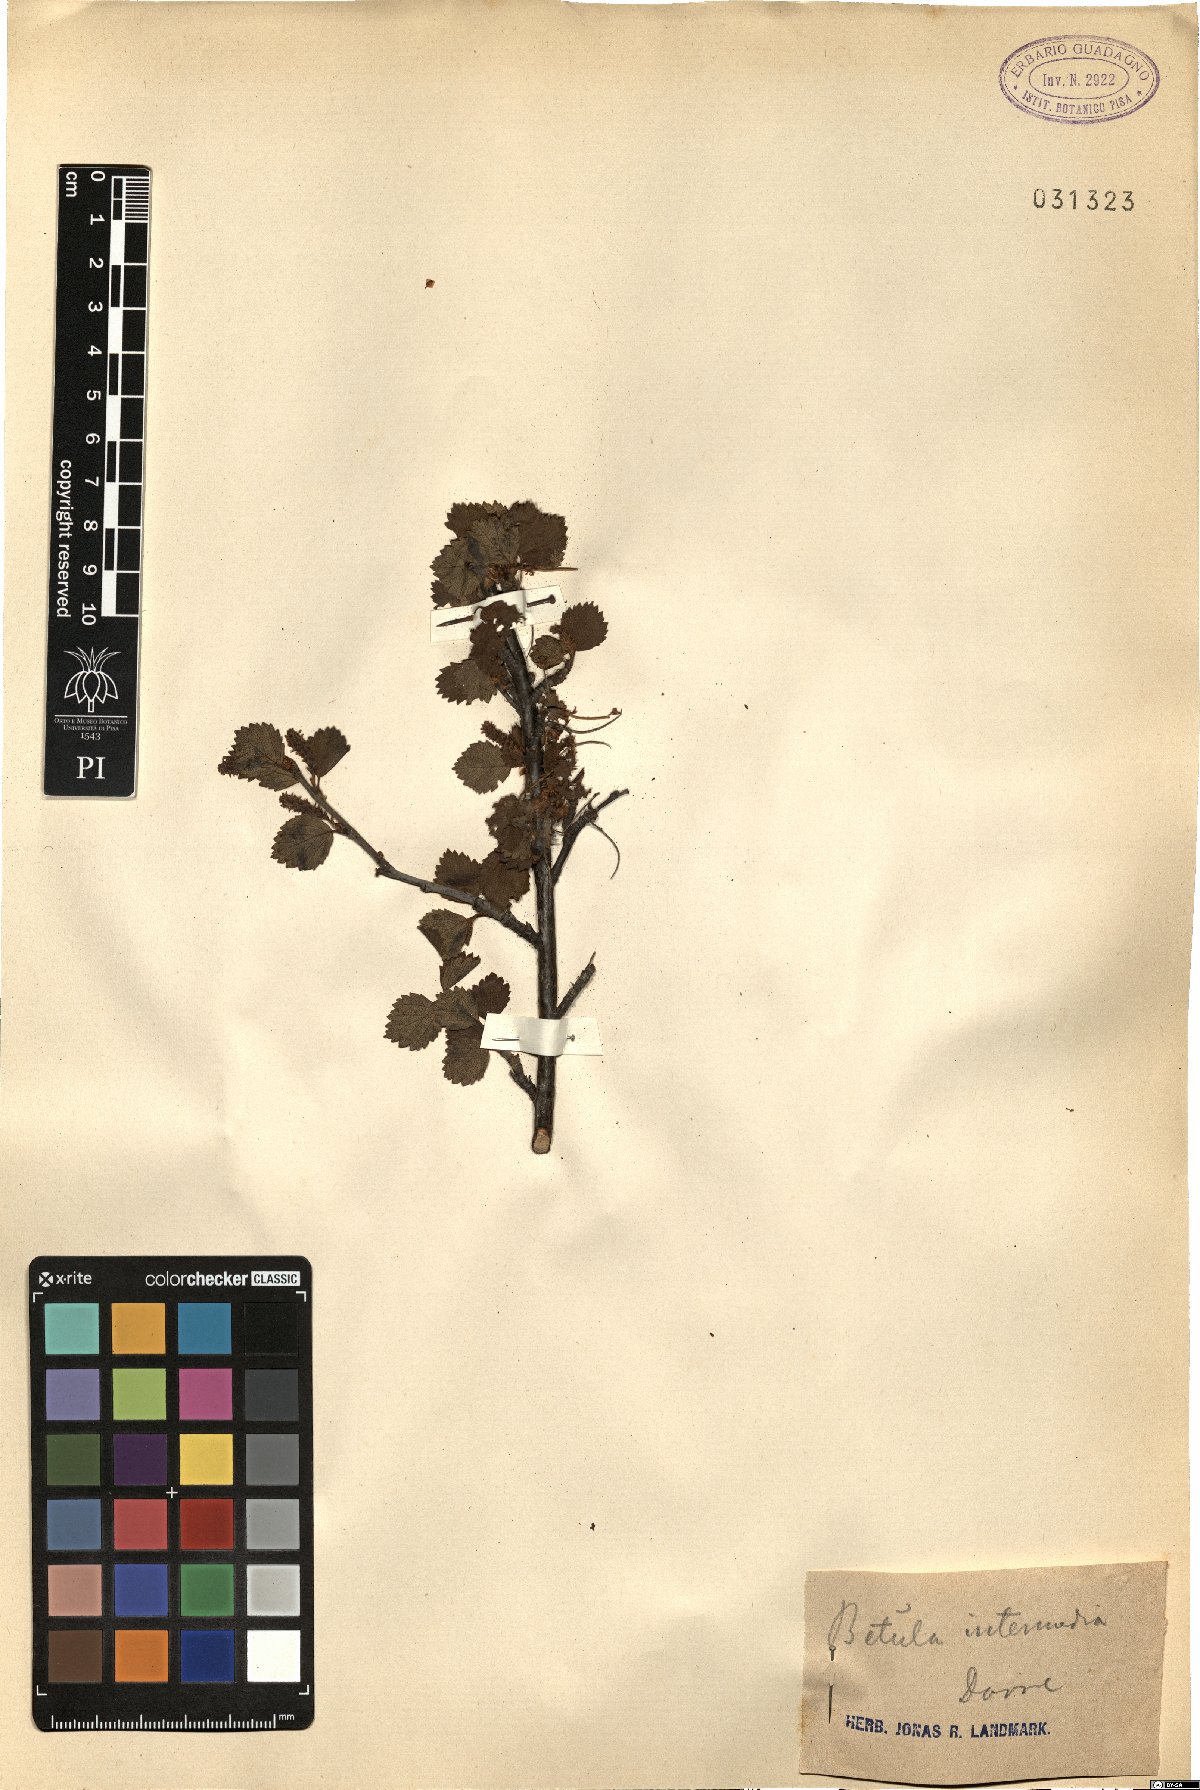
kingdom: Plantae
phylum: Tracheophyta
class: Magnoliopsida
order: Fagales
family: Betulaceae
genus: Betula
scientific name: Betula intermedia
